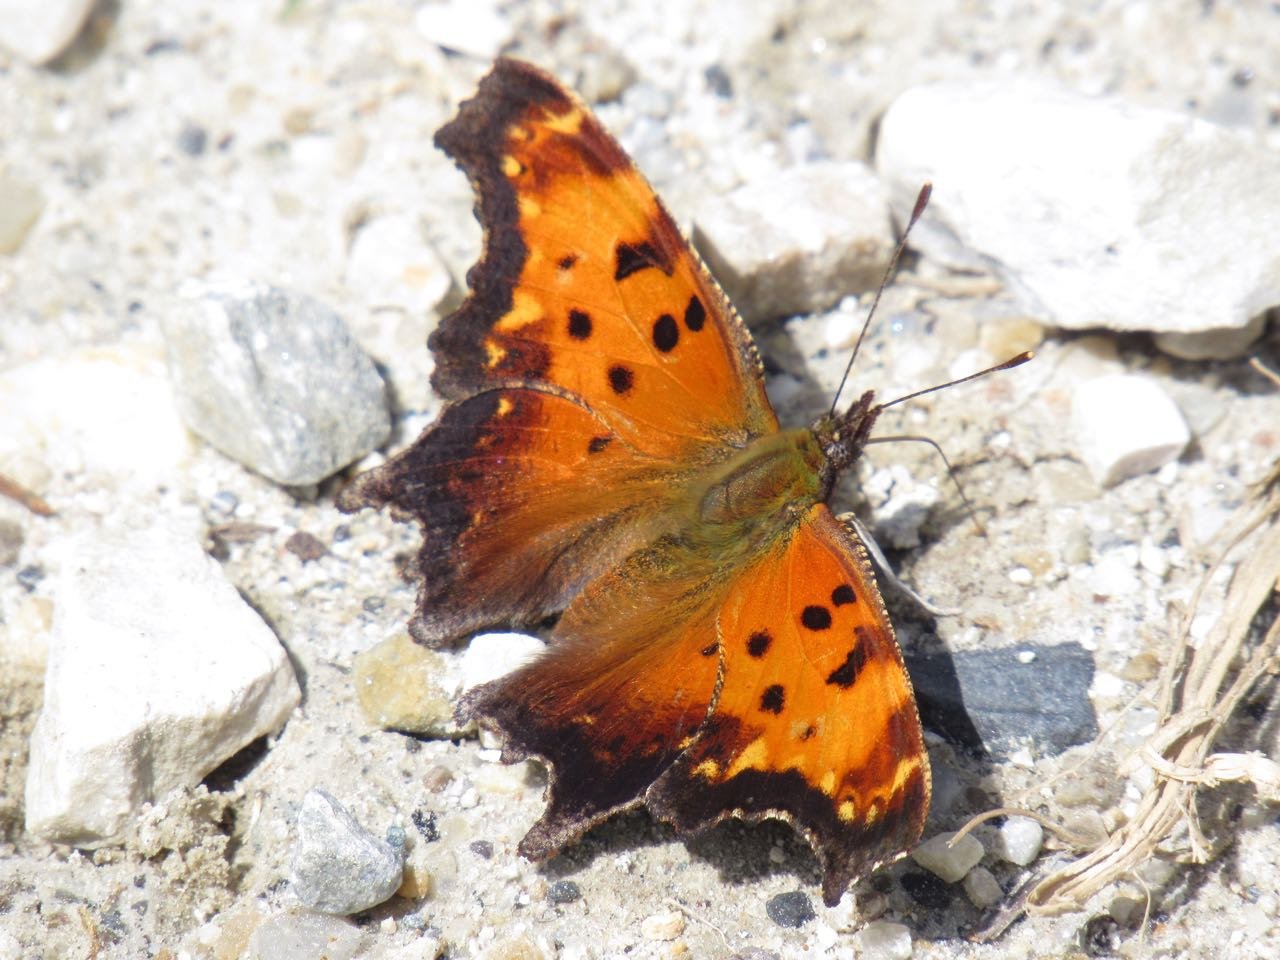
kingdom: Animalia
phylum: Arthropoda
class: Insecta
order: Lepidoptera
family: Nymphalidae
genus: Polygonia
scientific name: Polygonia progne
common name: Gray Comma
